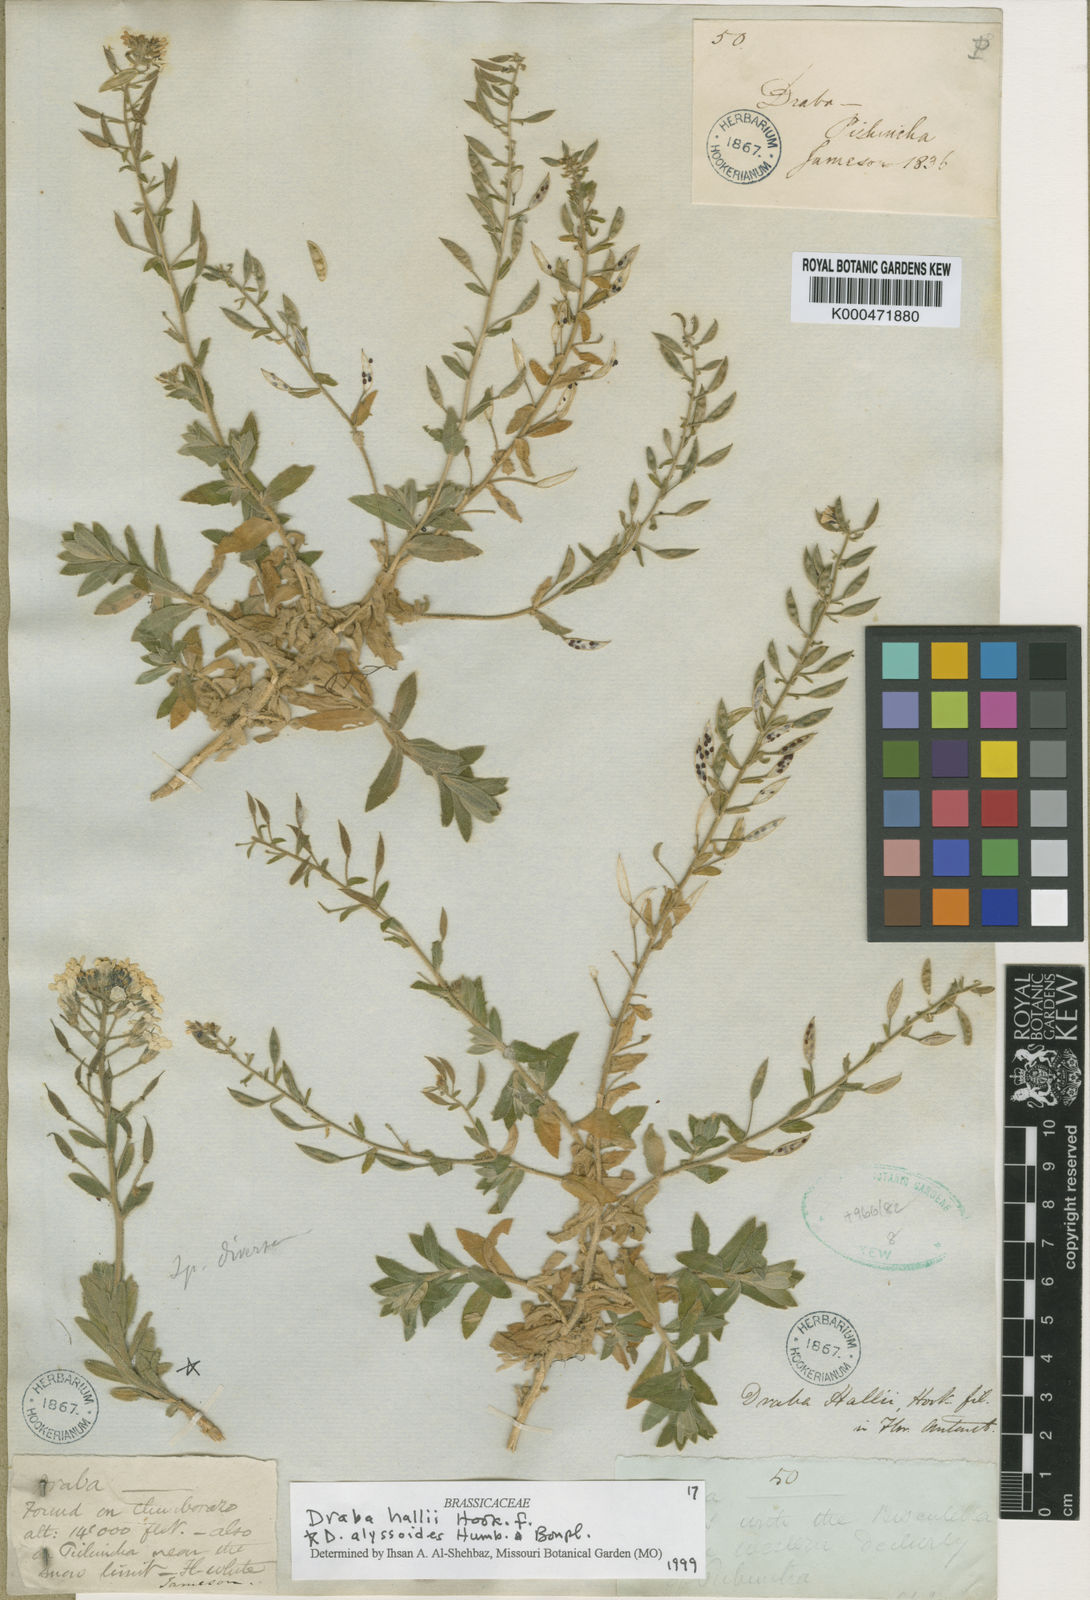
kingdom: Plantae
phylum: Tracheophyta
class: Magnoliopsida
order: Brassicales
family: Brassicaceae
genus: Draba
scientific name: Draba hallii
